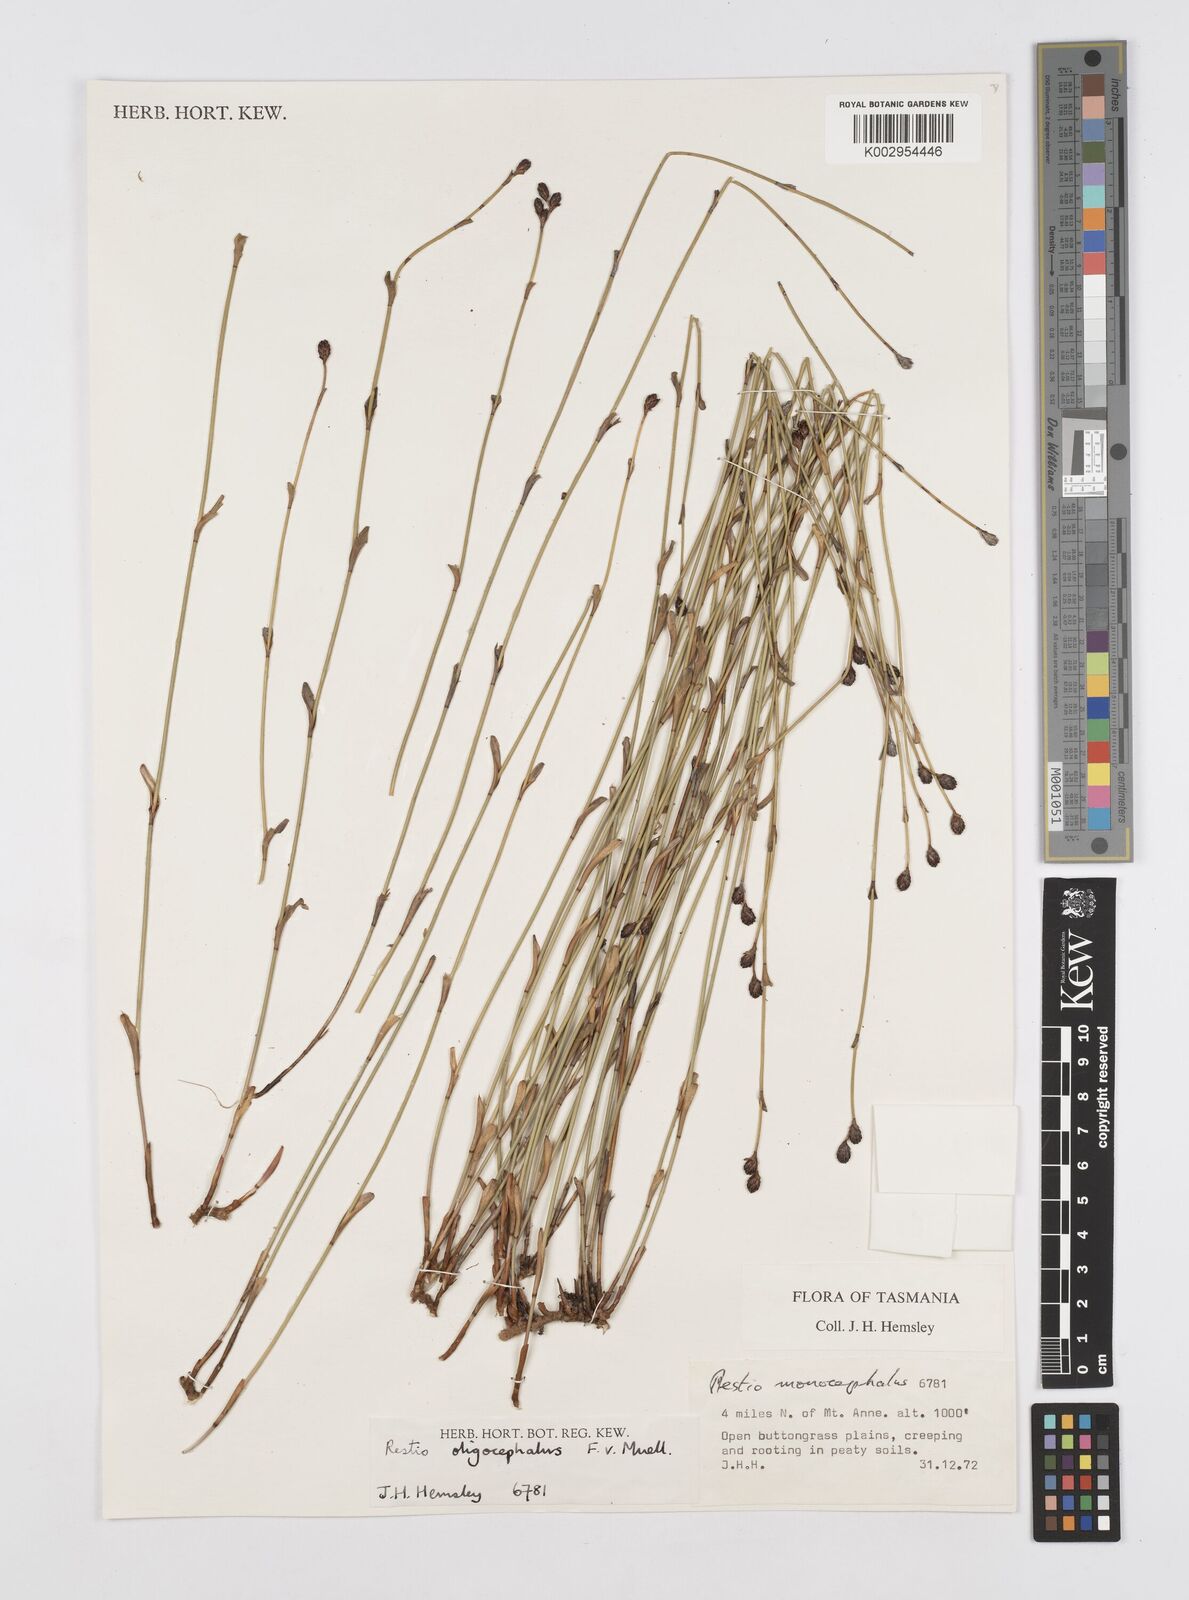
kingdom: Plantae
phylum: Tracheophyta
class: Liliopsida
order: Poales
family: Restionaceae
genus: Chordifex
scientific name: Chordifex hookeri
